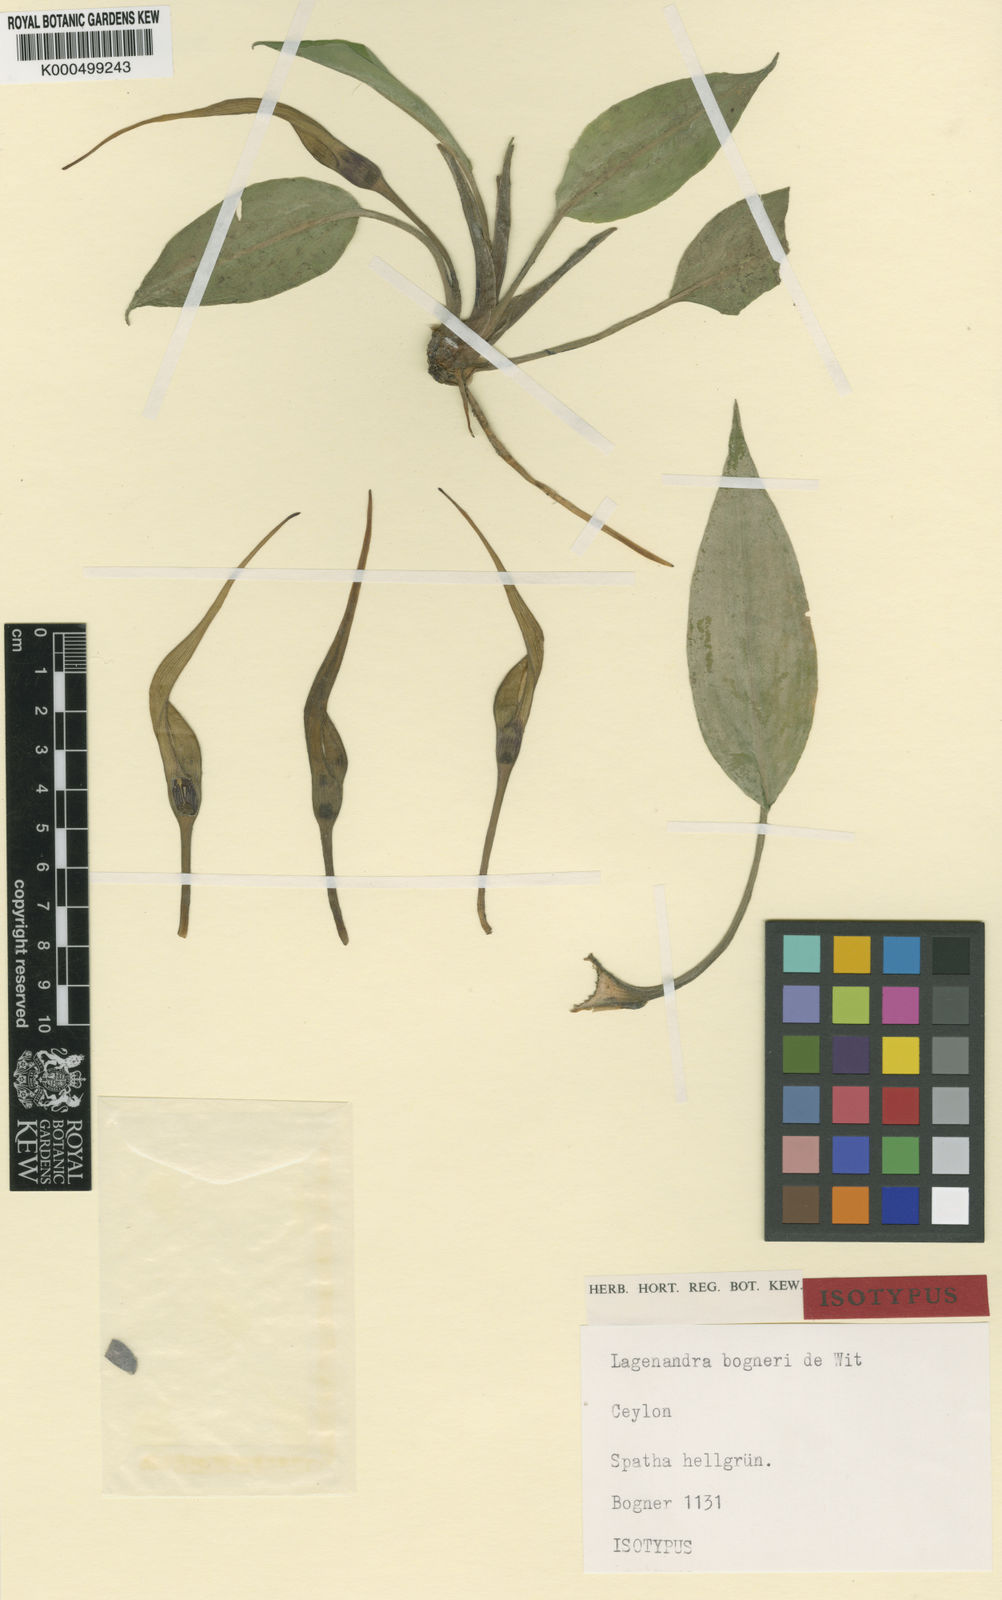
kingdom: Plantae
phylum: Tracheophyta
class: Liliopsida
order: Alismatales
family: Araceae
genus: Lagenandra
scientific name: Lagenandra bogneri
